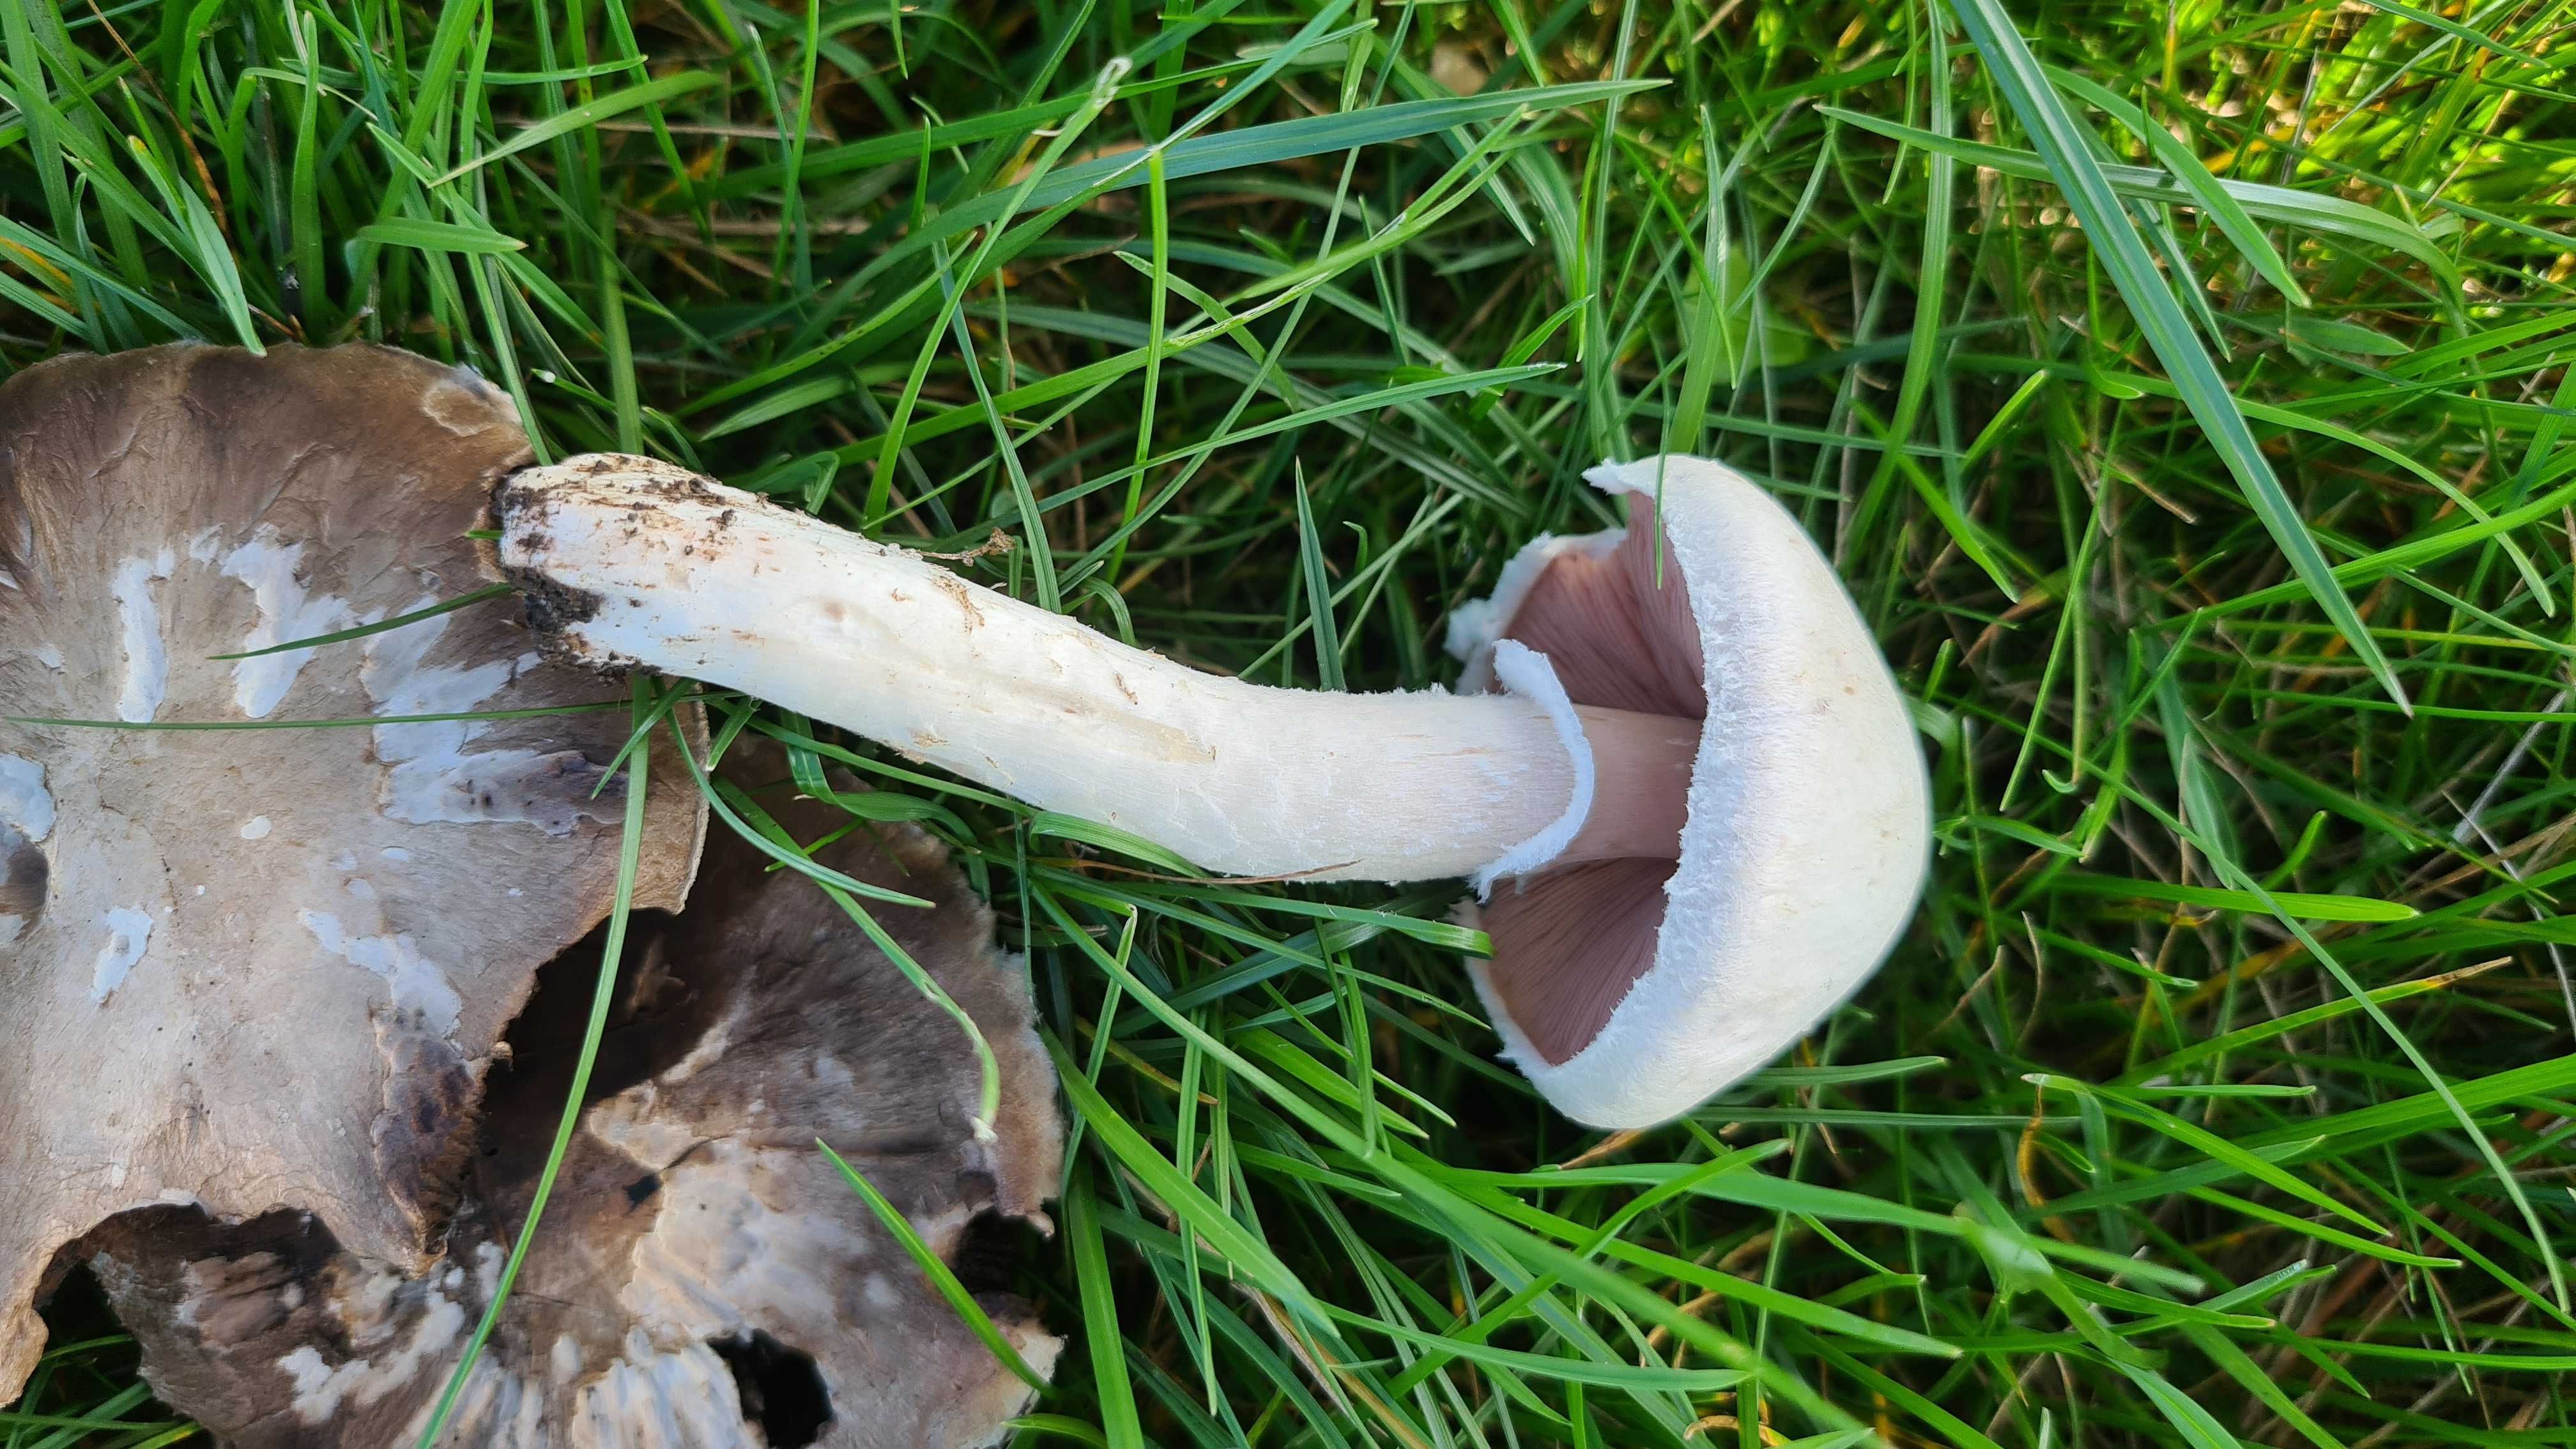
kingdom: Fungi
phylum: Basidiomycota
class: Agaricomycetes
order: Agaricales
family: Agaricaceae
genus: Agaricus
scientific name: Agaricus campestris
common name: mark-champignon
